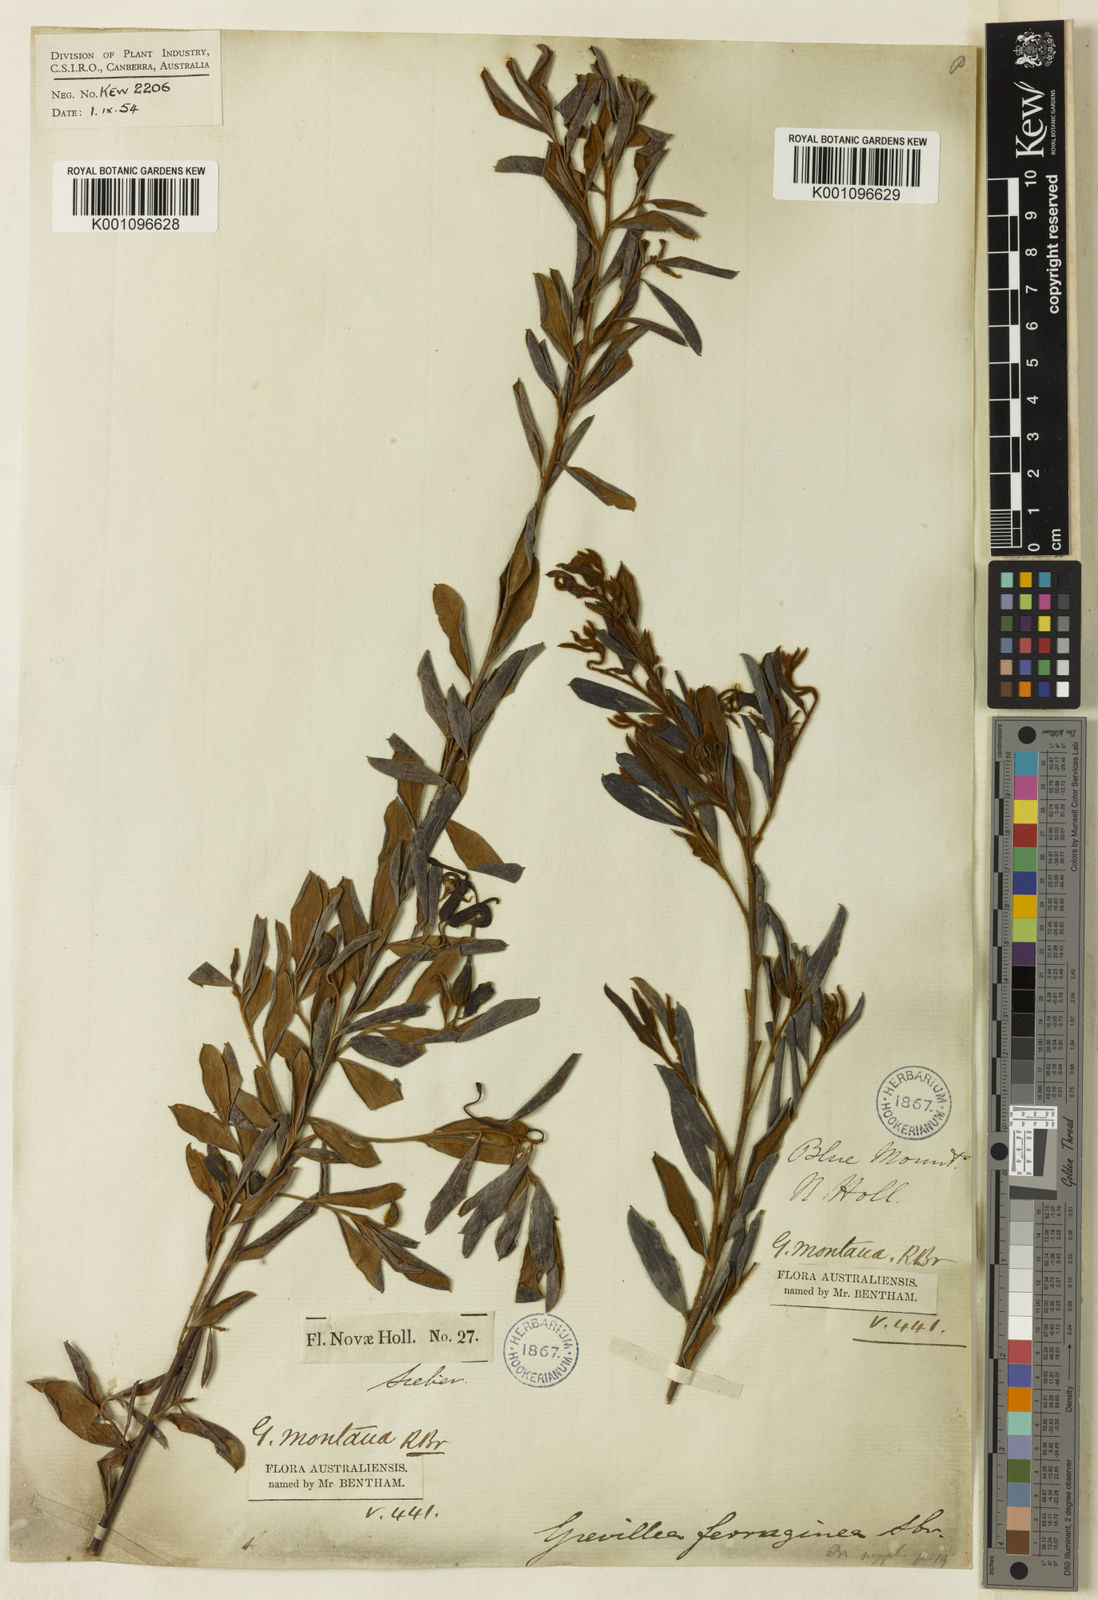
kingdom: Plantae
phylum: Tracheophyta
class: Magnoliopsida
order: Proteales
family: Proteaceae
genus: Grevillea
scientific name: Grevillea
